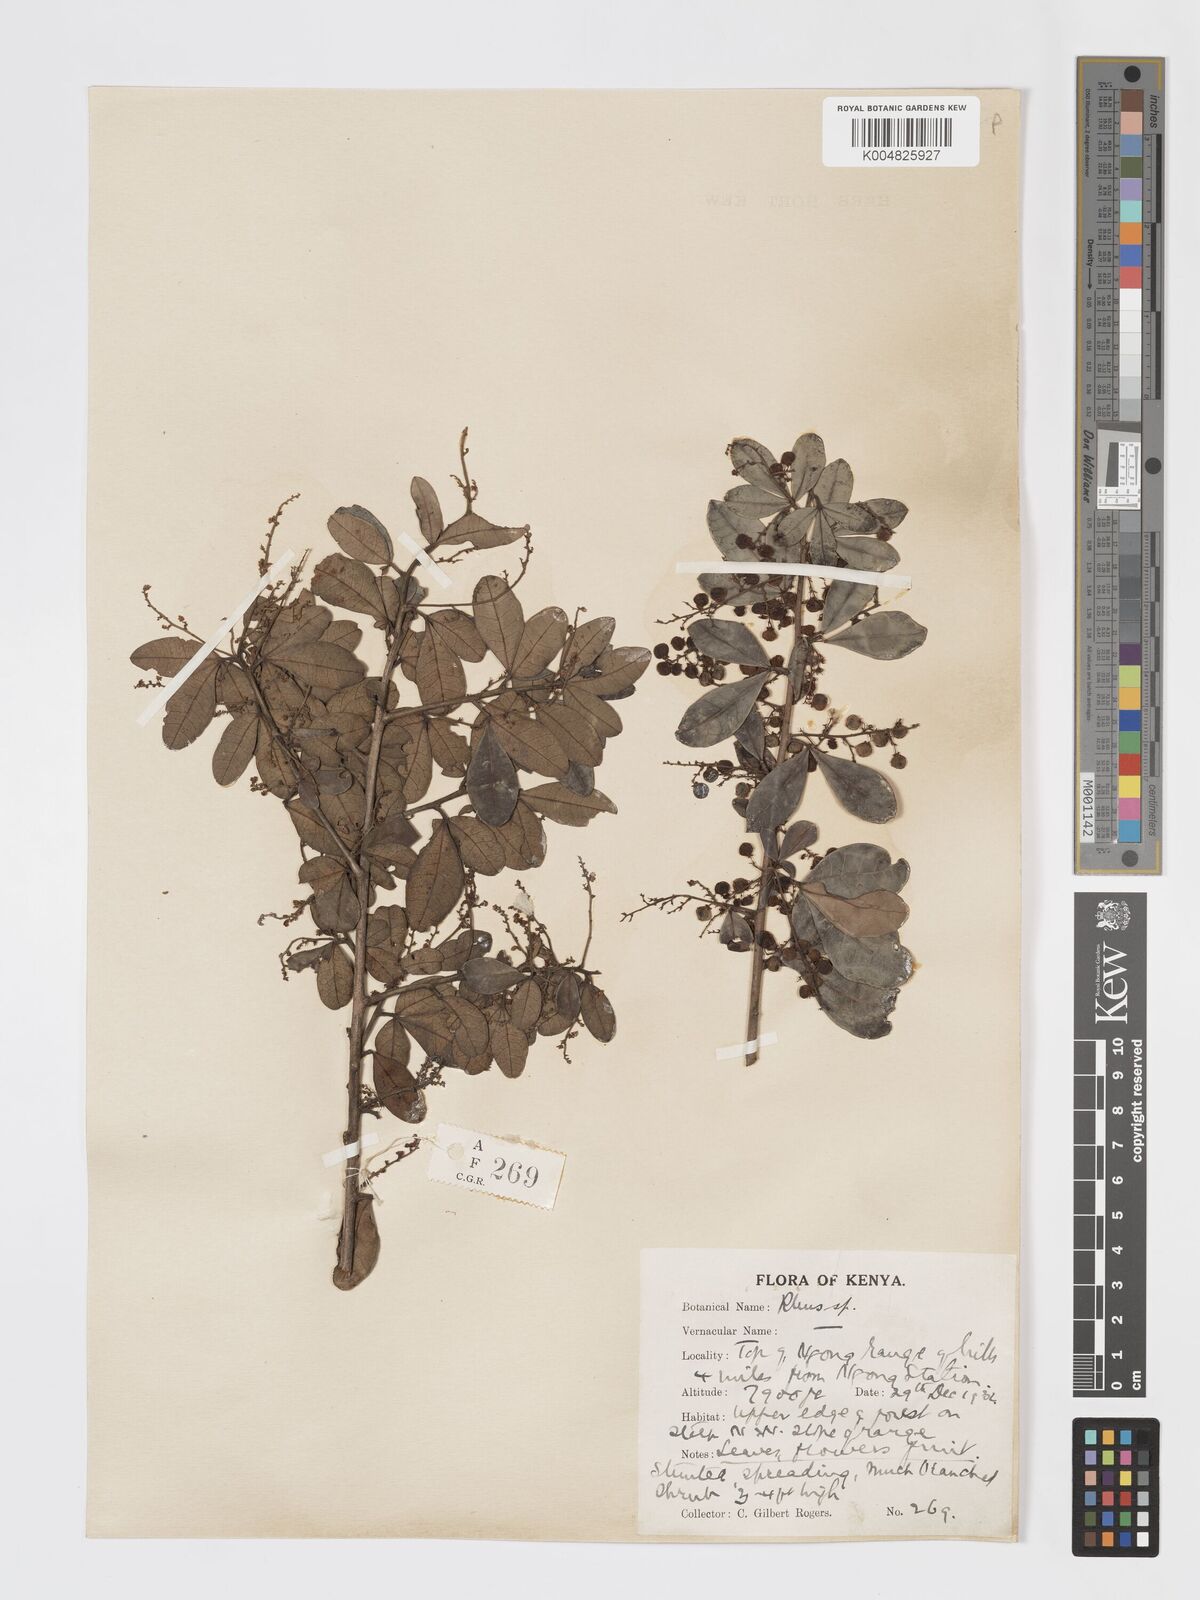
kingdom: Plantae
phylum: Tracheophyta
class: Magnoliopsida
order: Sapindales
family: Anacardiaceae
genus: Searsia
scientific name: Searsia natalensis
